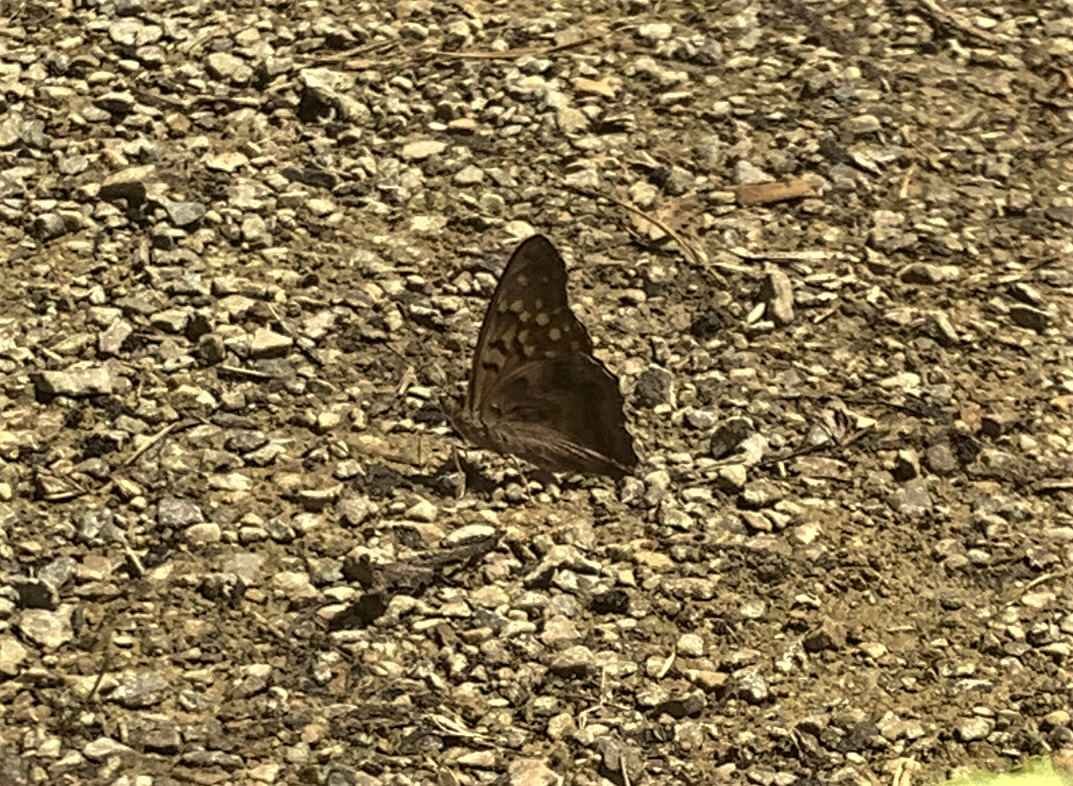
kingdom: Animalia
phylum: Arthropoda
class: Insecta
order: Lepidoptera
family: Nymphalidae
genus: Asterocampa
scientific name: Asterocampa clyton
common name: Tawny Emperor
